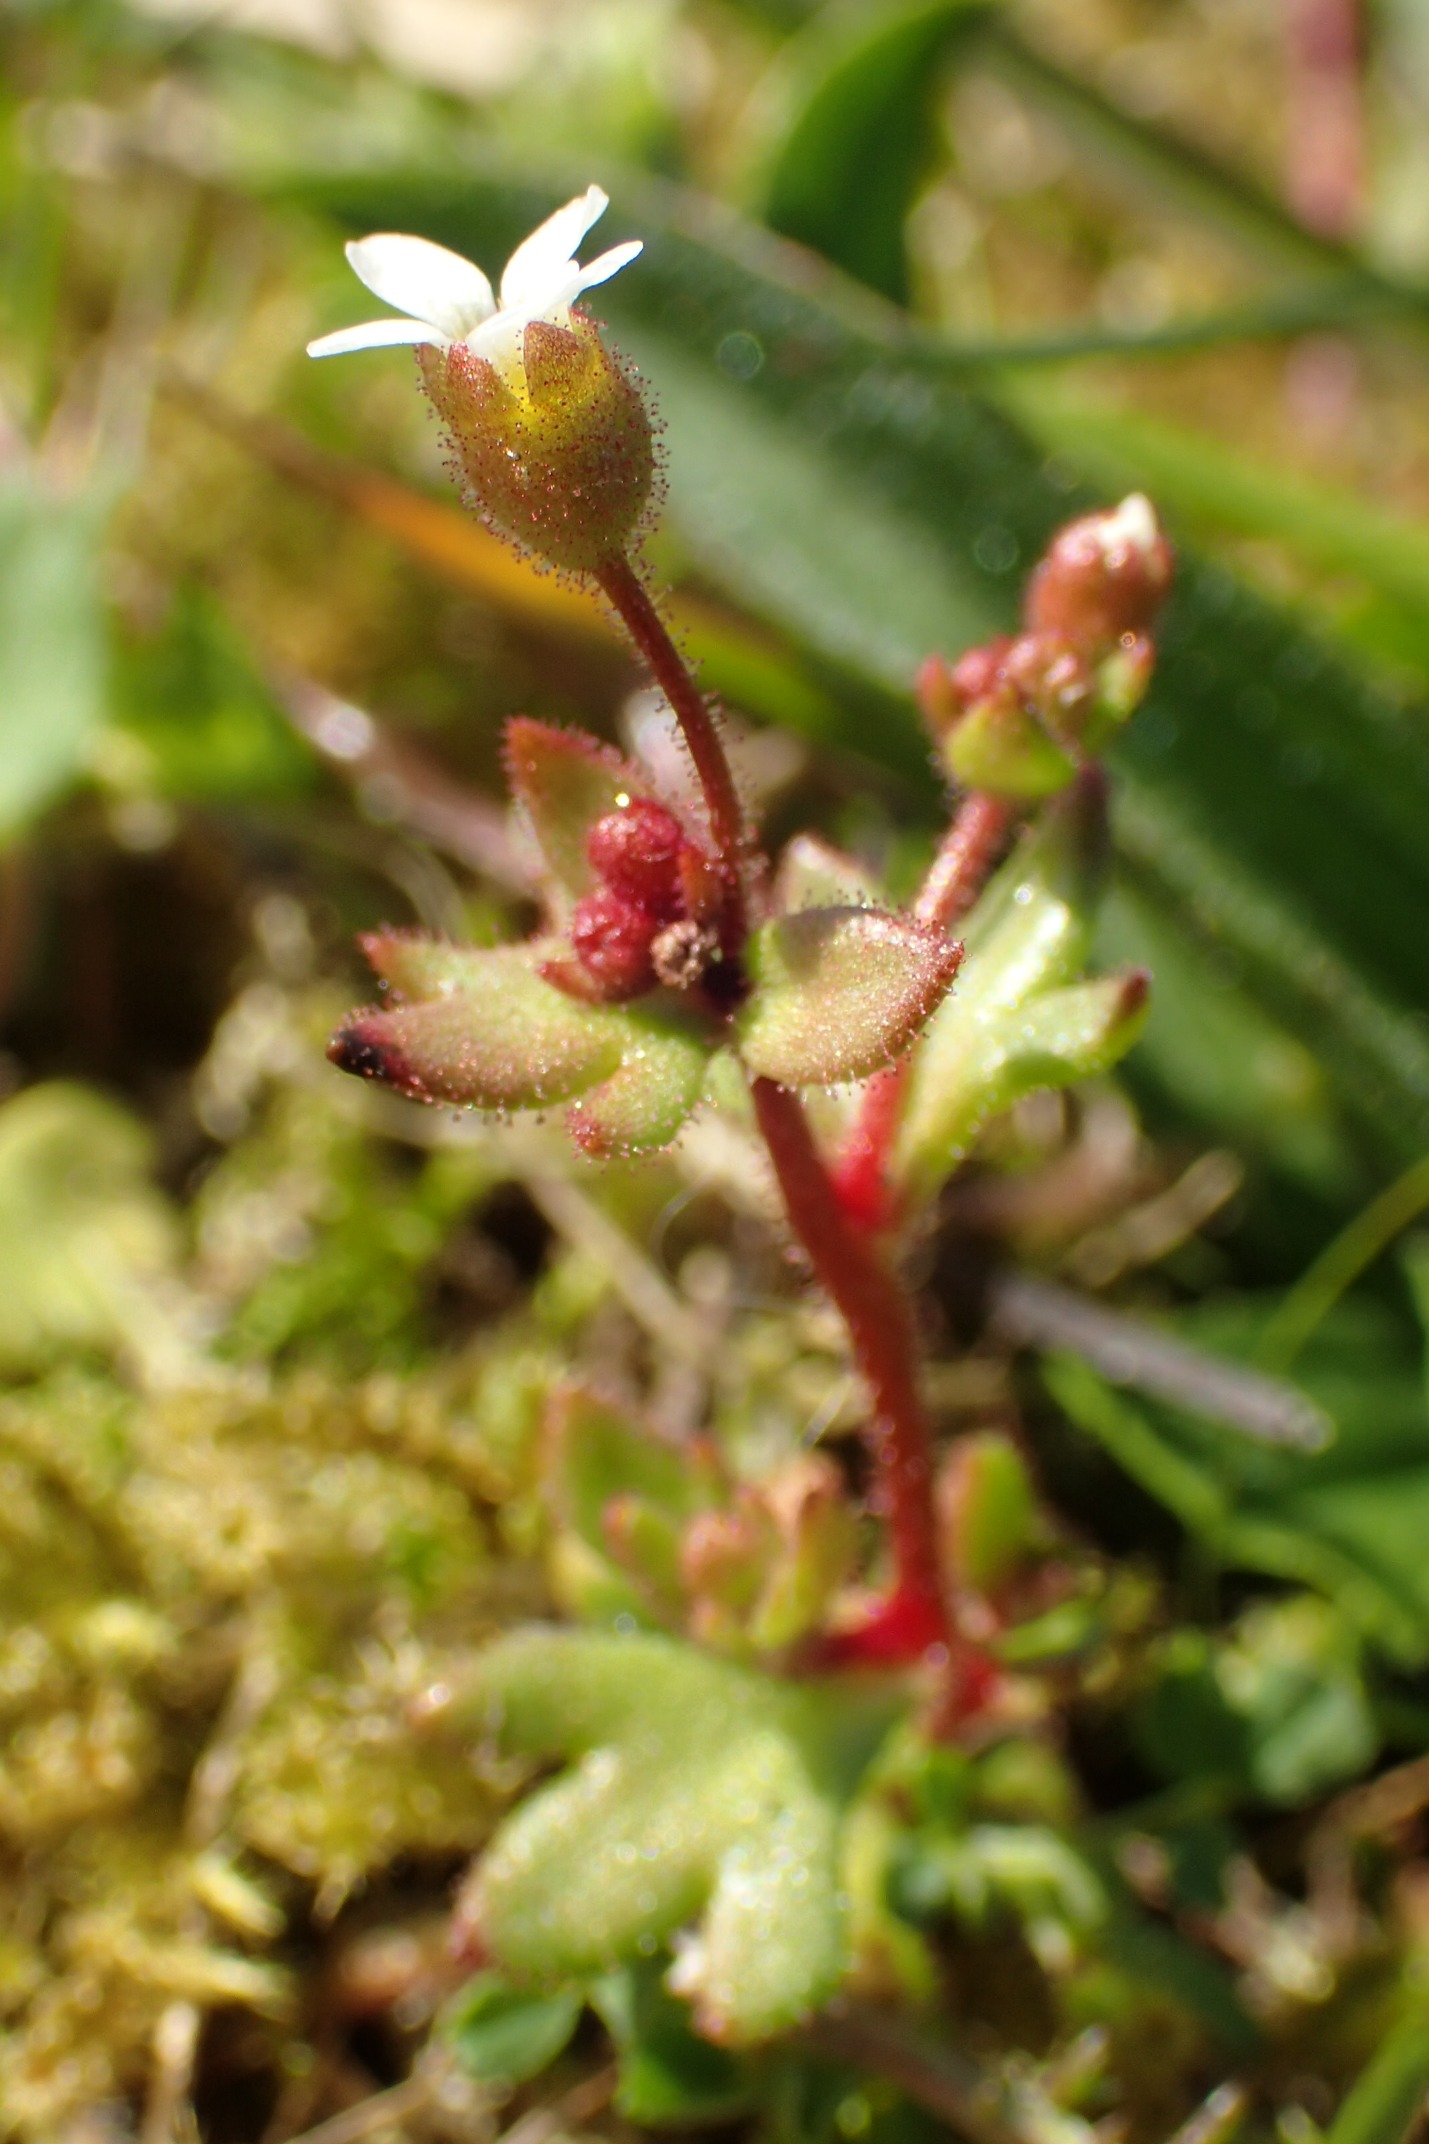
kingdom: Plantae
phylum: Tracheophyta
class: Magnoliopsida
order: Saxifragales
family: Saxifragaceae
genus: Saxifraga
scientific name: Saxifraga tridactylites
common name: Trekløft-stenbræk
